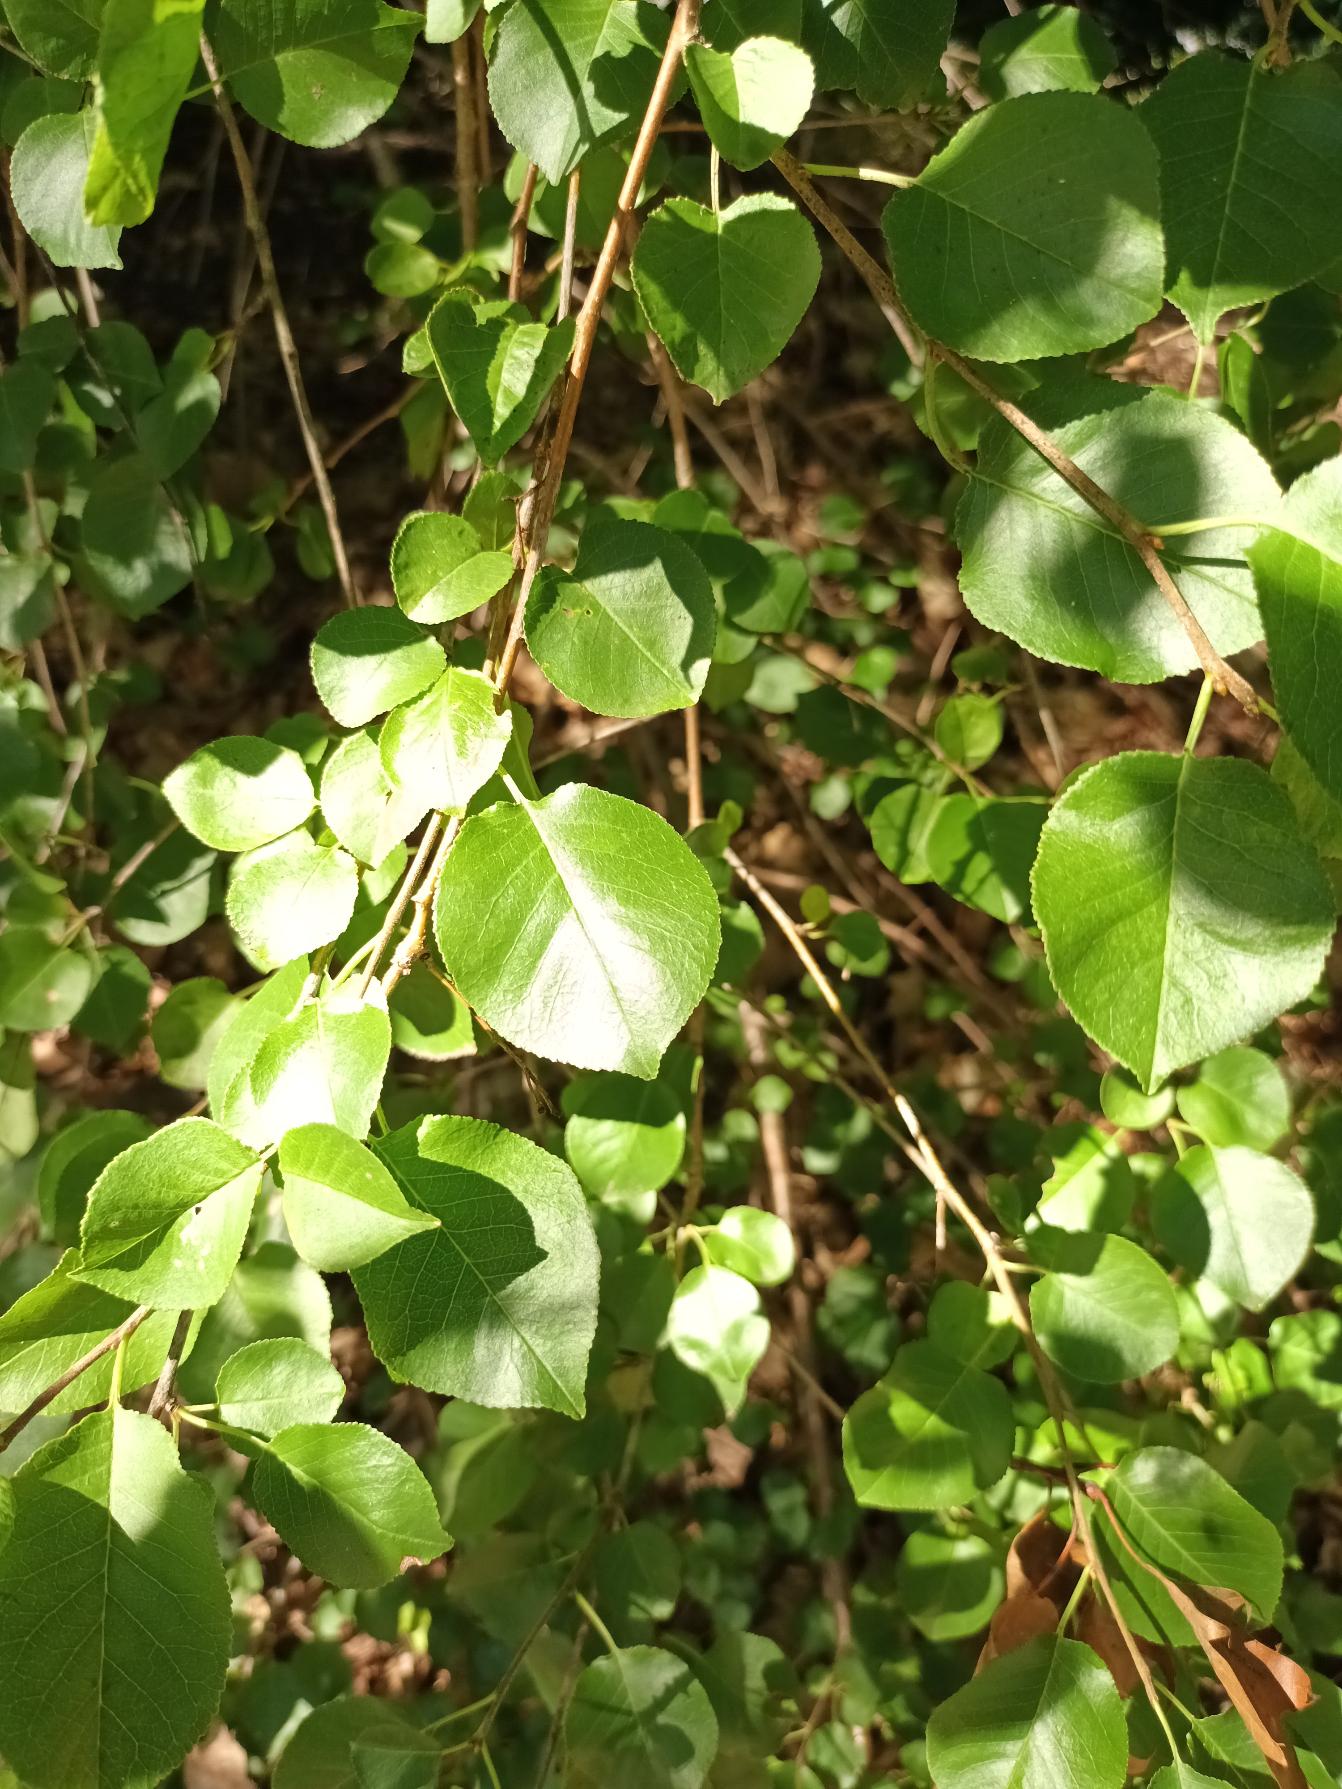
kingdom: Plantae
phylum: Tracheophyta
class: Magnoliopsida
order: Rosales
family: Rosaceae
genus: Prunus
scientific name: Prunus mahaleb
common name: Weichsel
